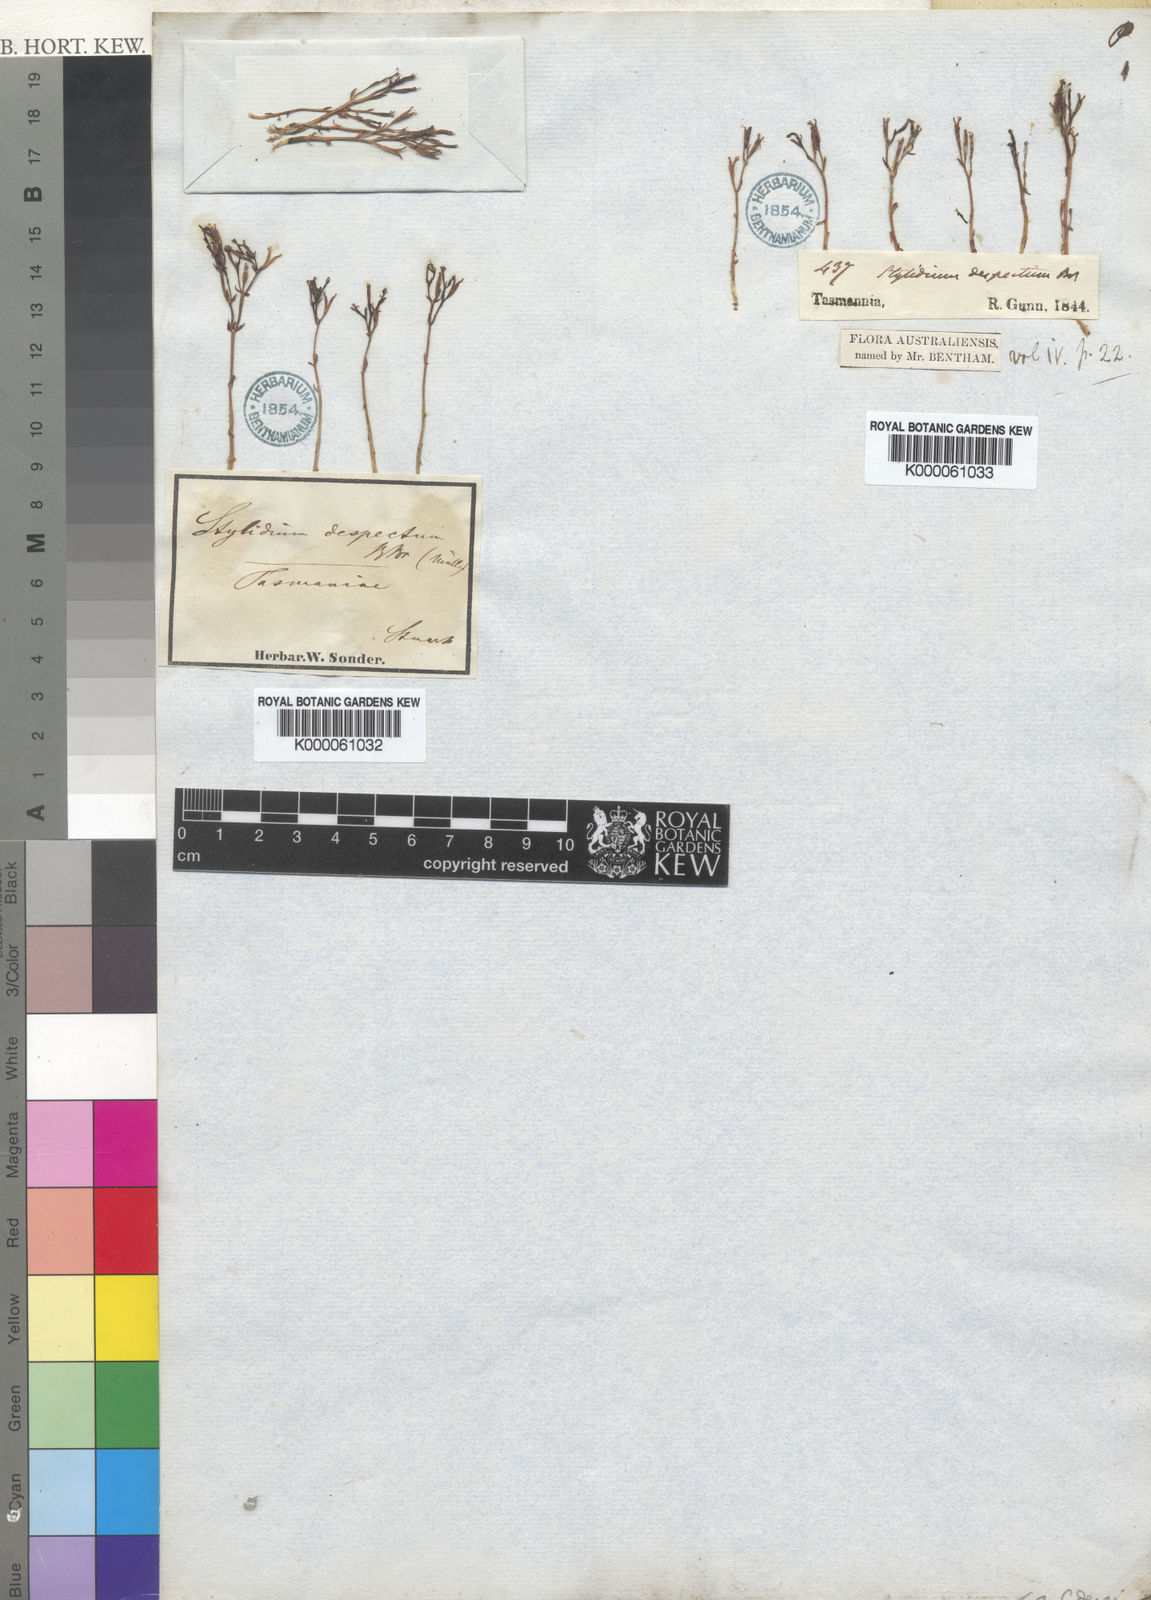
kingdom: Plantae
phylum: Tracheophyta
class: Magnoliopsida
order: Asterales
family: Stylidiaceae
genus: Stylidium
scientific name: Stylidium despectum
